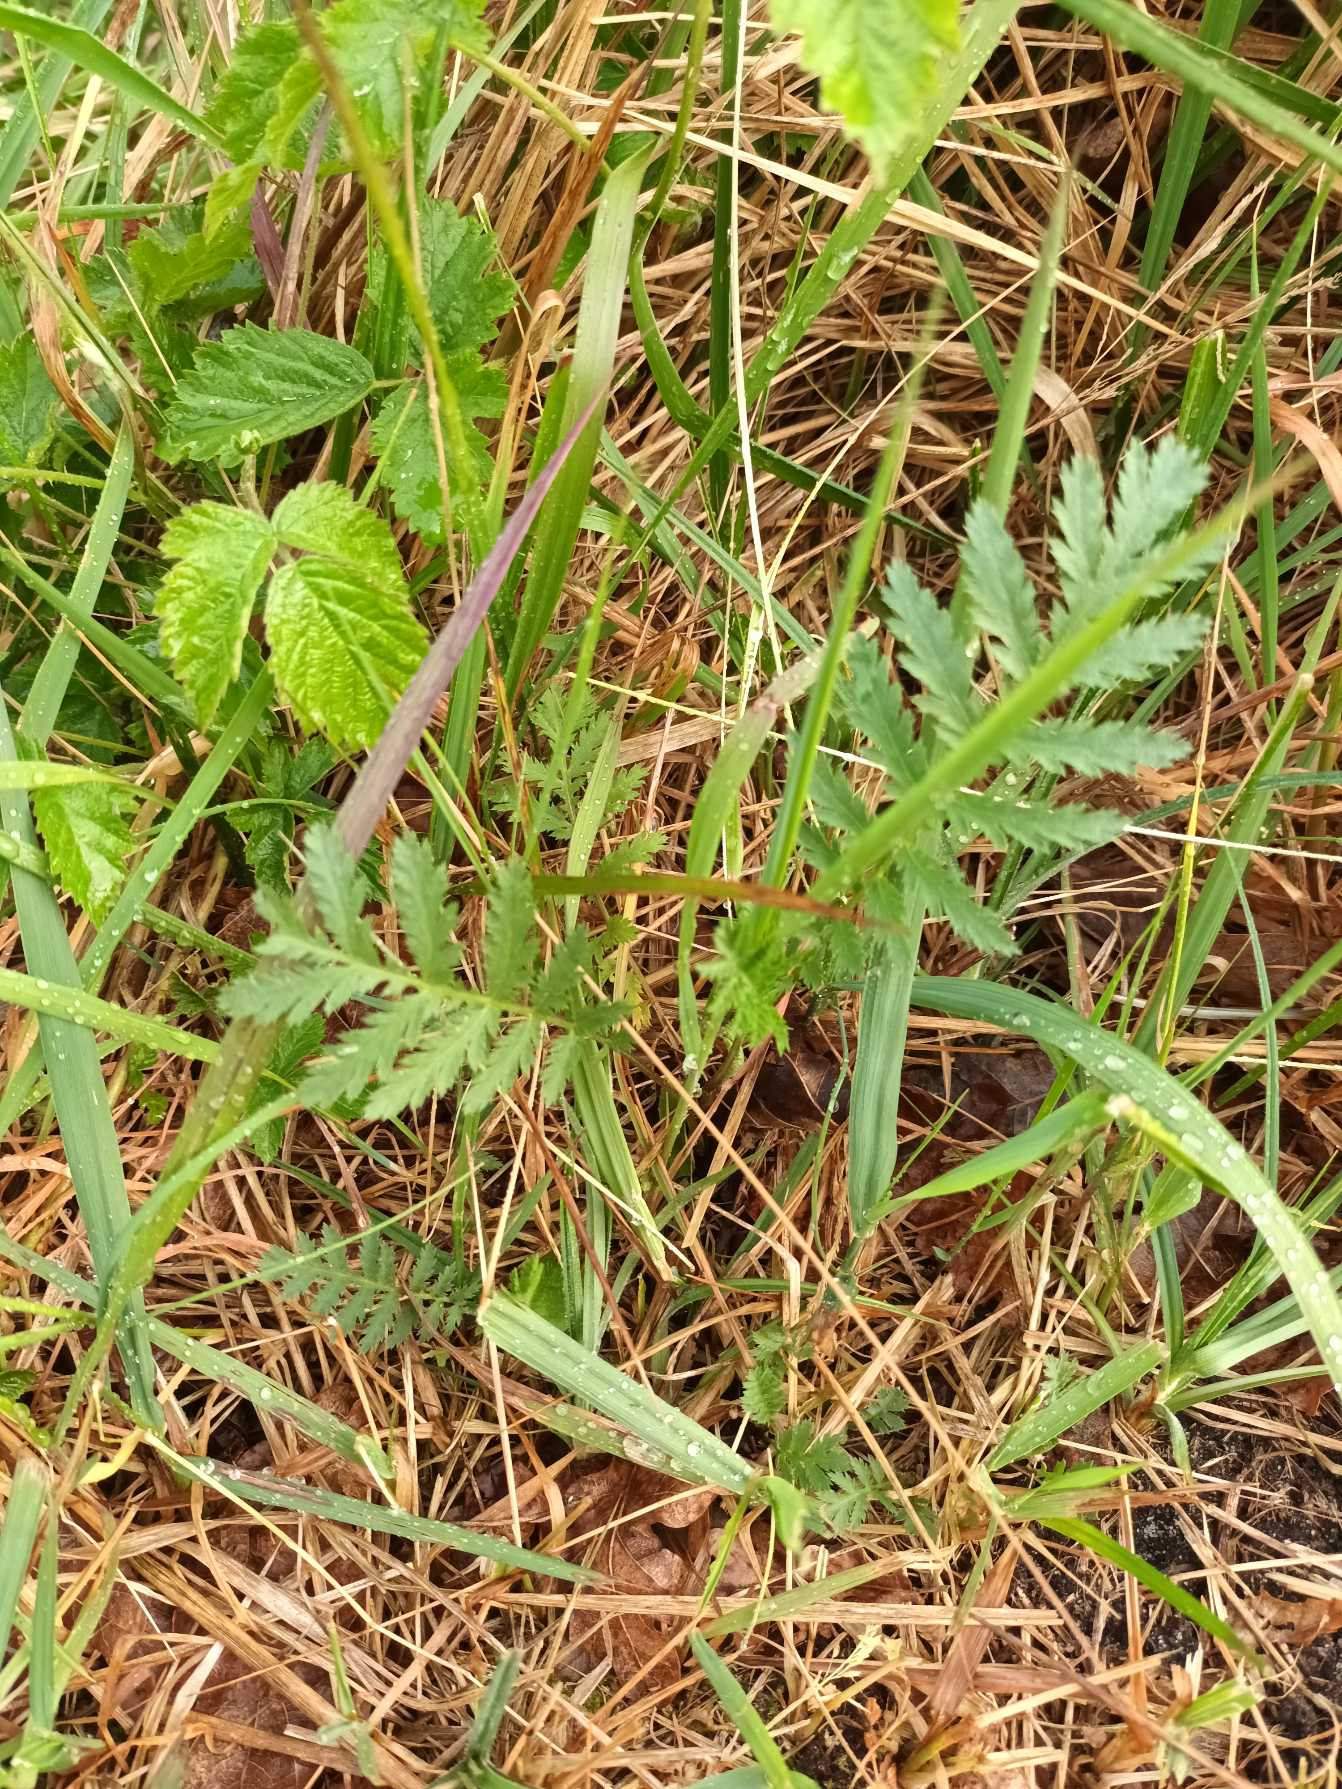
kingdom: Plantae
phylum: Tracheophyta
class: Magnoliopsida
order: Asterales
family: Asteraceae
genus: Tanacetum
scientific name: Tanacetum vulgare
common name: Rejnfan
